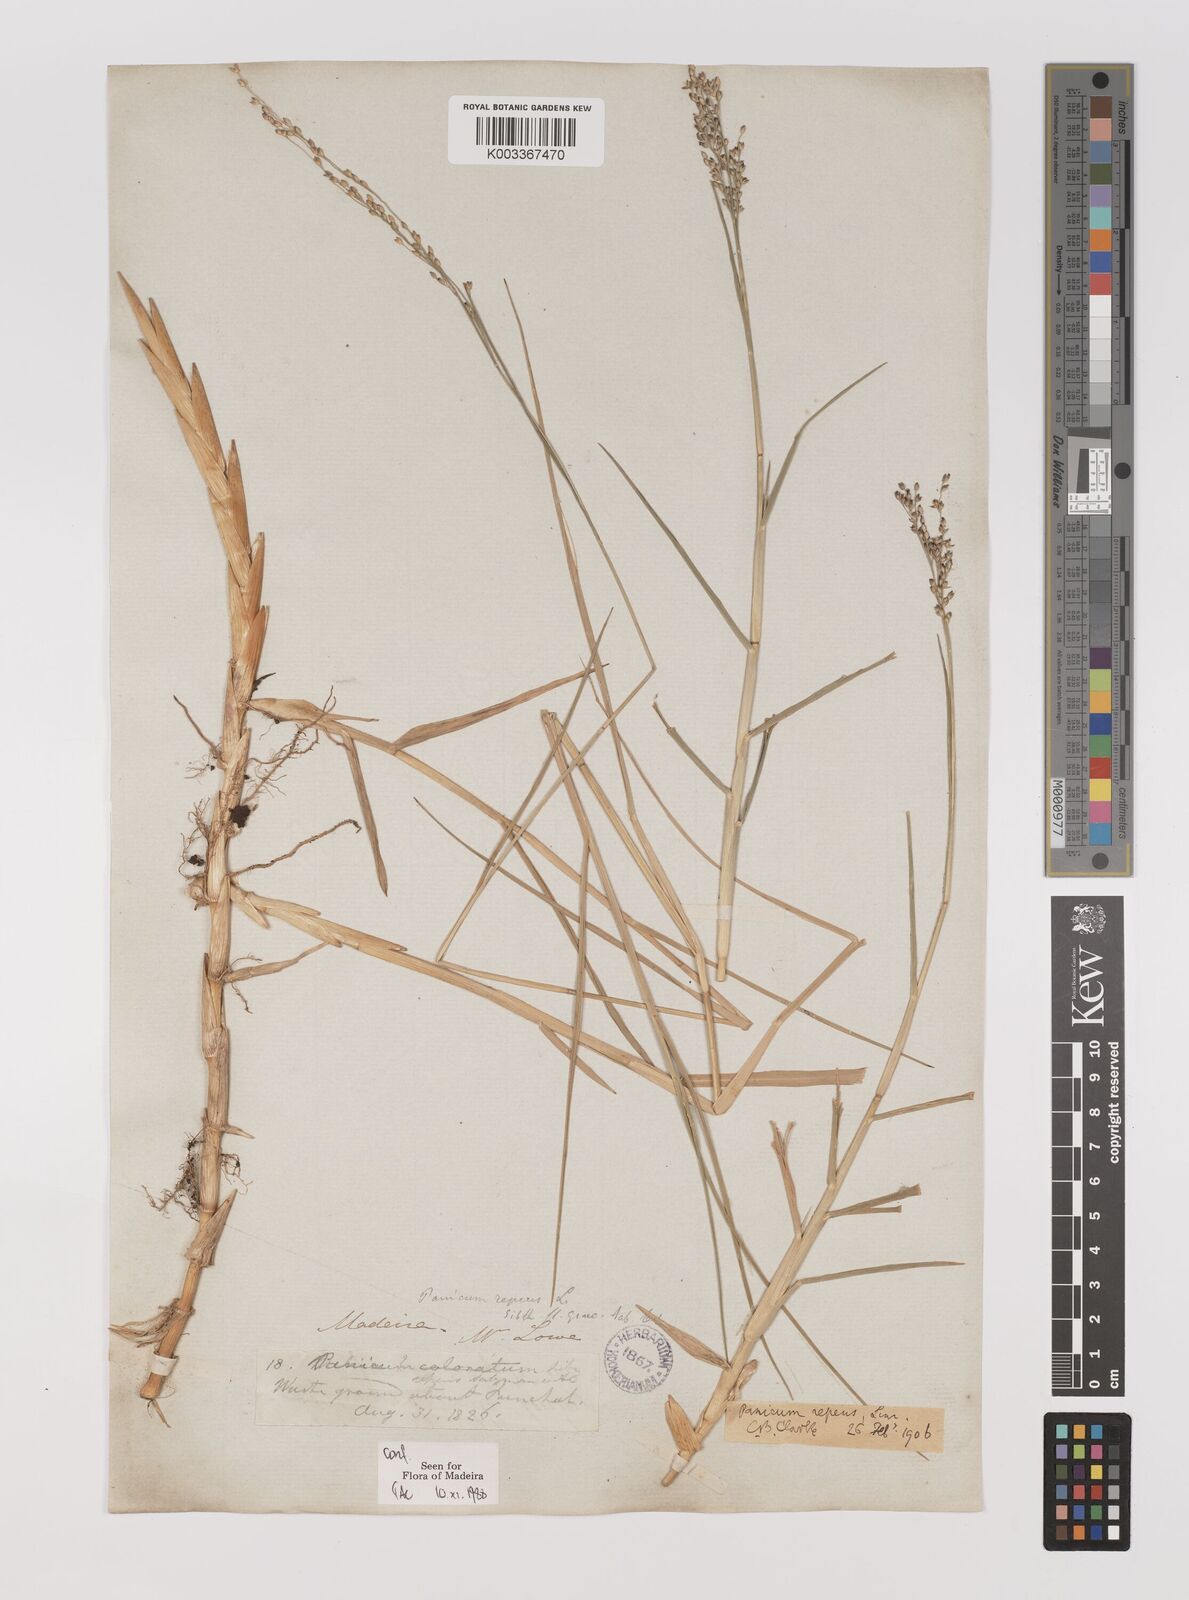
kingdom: Plantae
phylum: Tracheophyta
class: Liliopsida
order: Poales
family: Poaceae
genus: Panicum
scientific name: Panicum repens
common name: Torpedo grass
